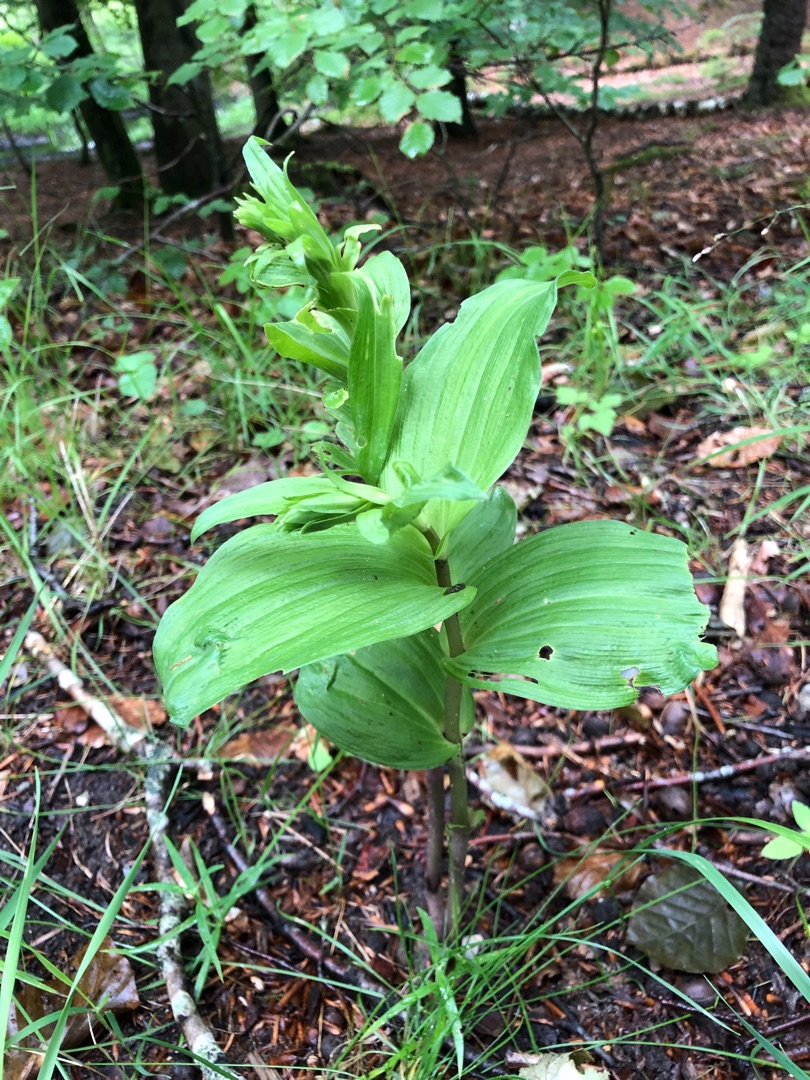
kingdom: Plantae
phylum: Tracheophyta
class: Liliopsida
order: Asparagales
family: Orchidaceae
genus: Epipactis
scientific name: Epipactis helleborine
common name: Skov-hullæbe
